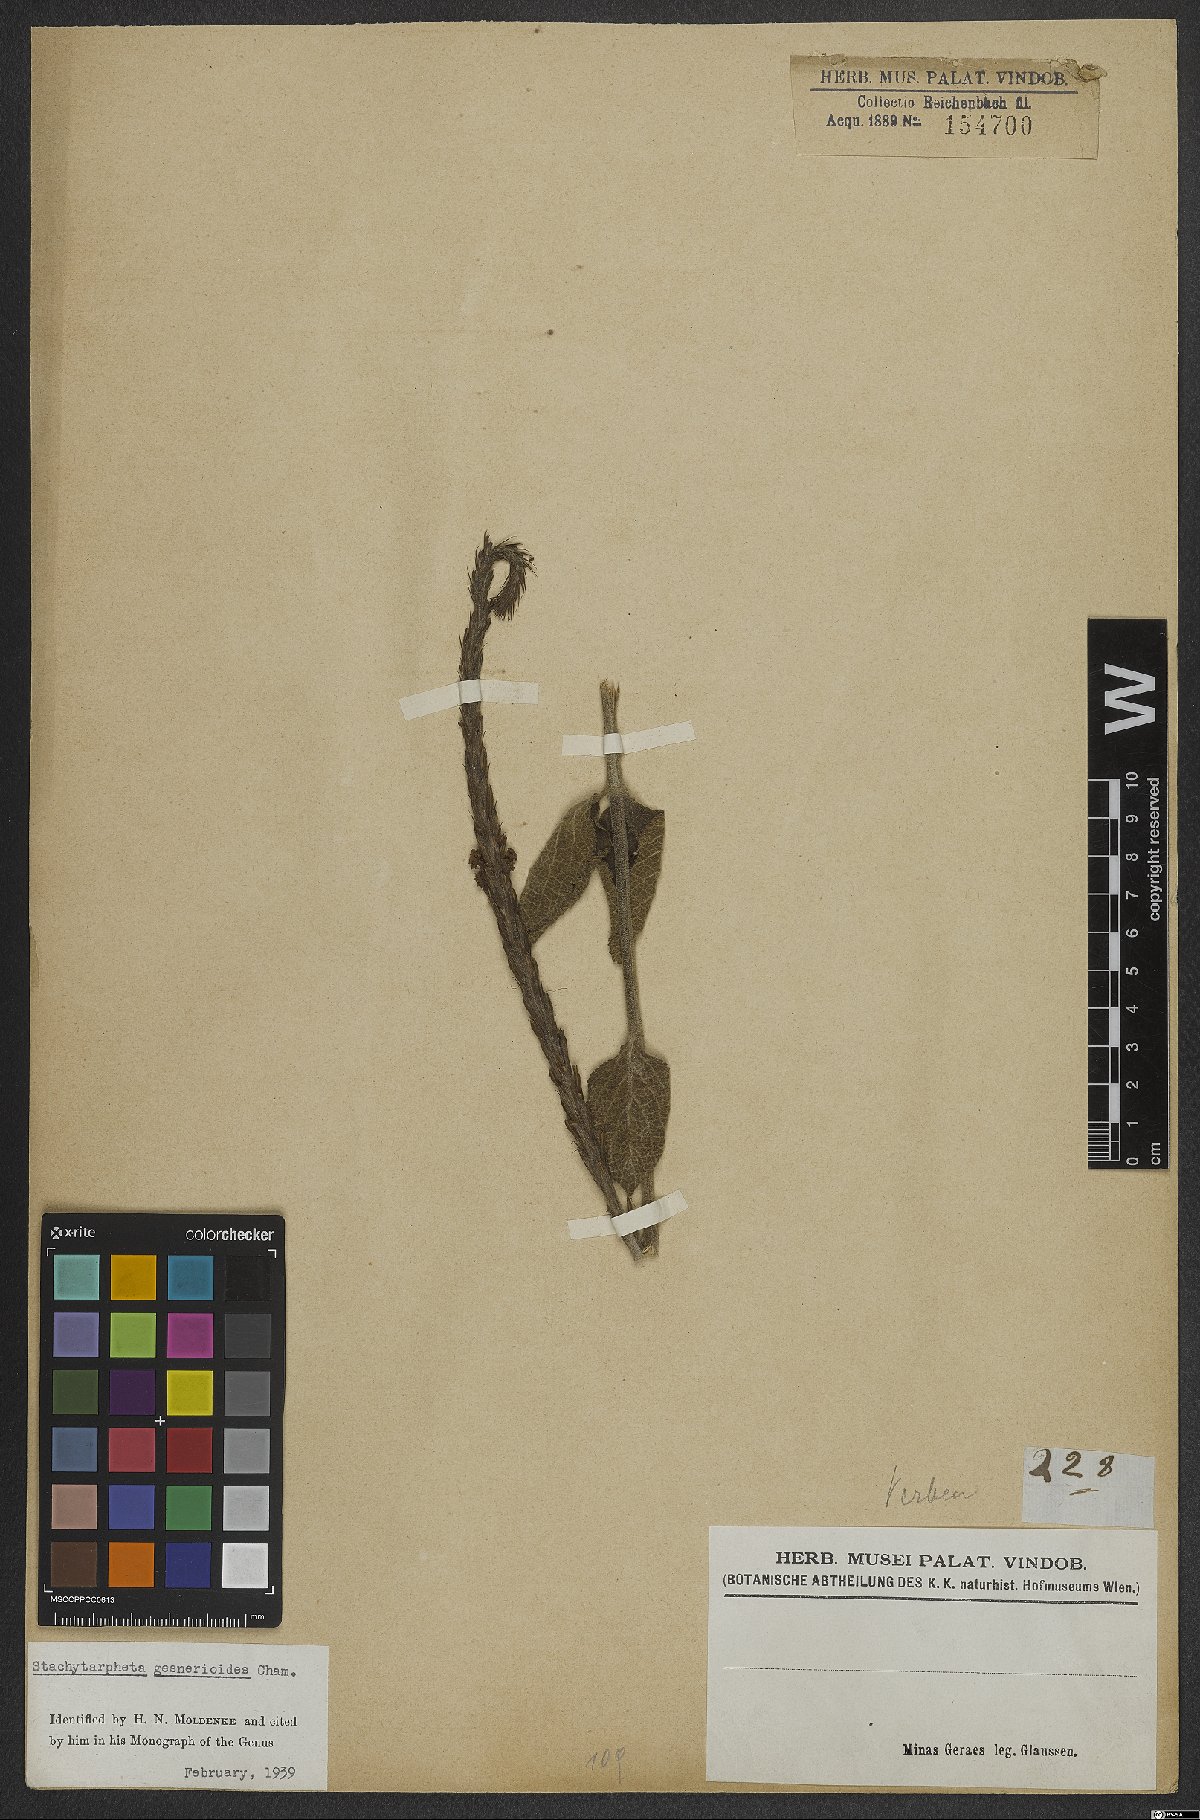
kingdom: Plantae
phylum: Tracheophyta
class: Magnoliopsida
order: Lamiales
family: Verbenaceae
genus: Stachytarpheta
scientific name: Stachytarpheta gesnerioides
